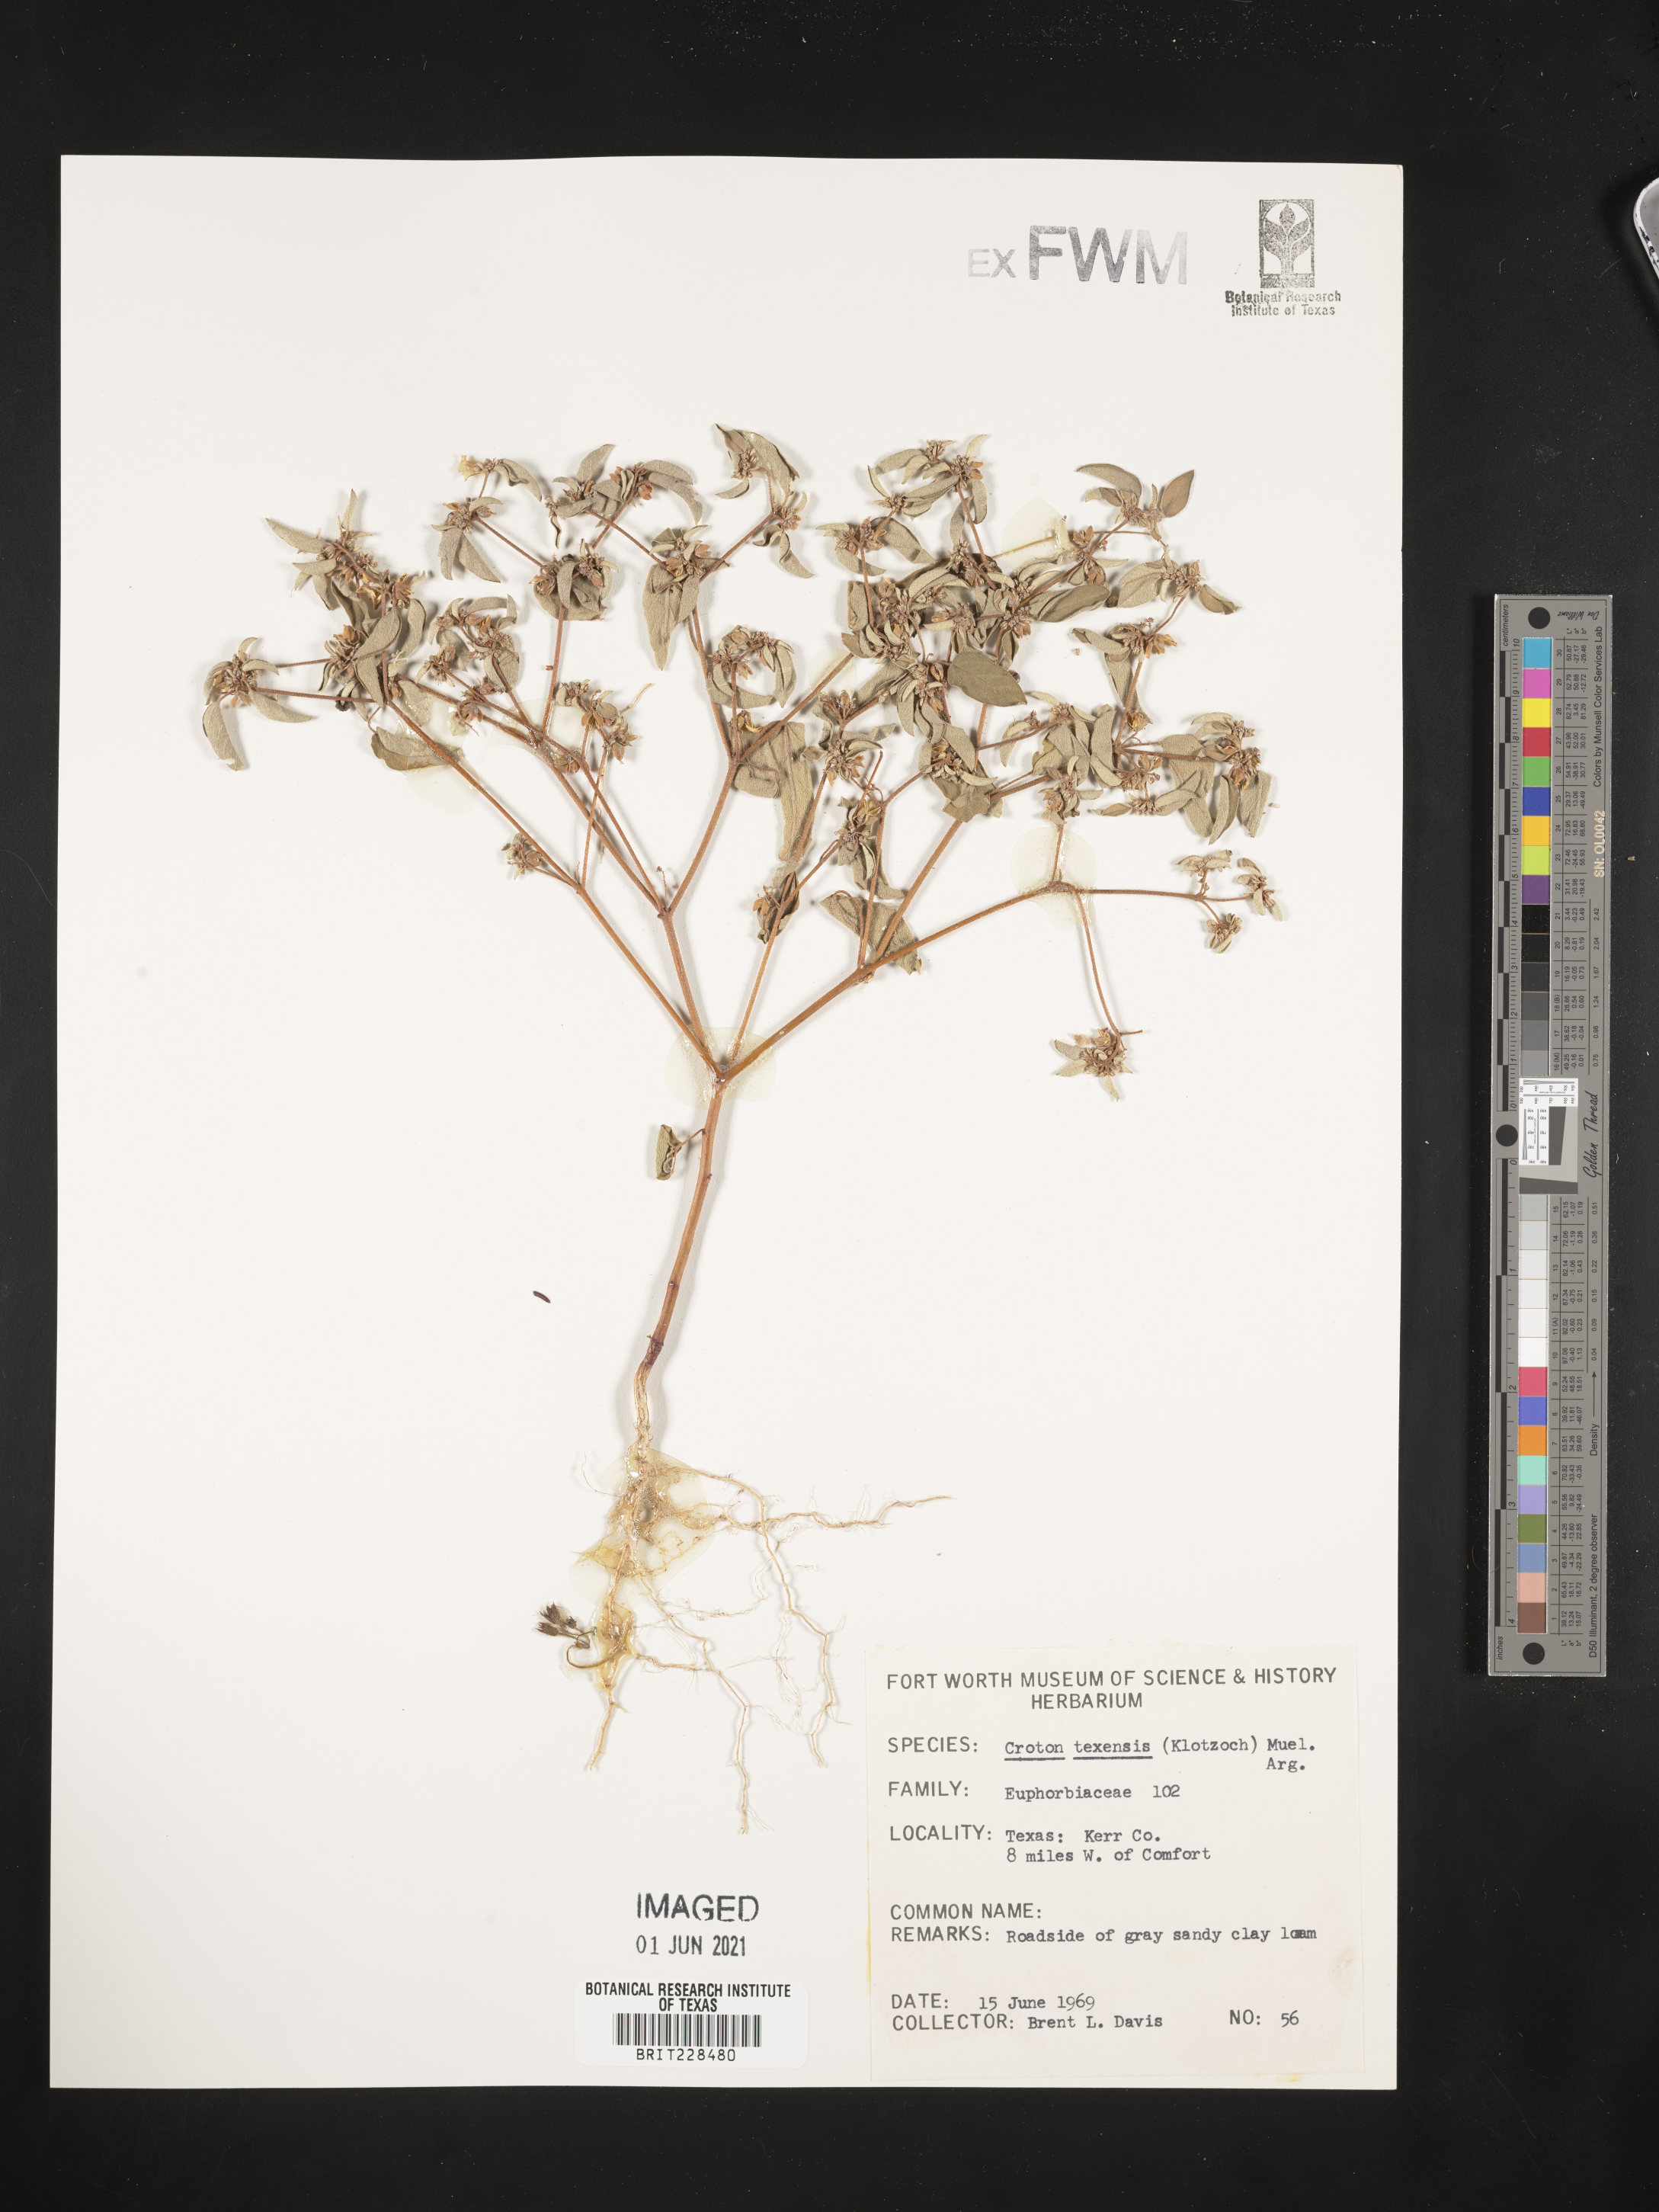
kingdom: Plantae
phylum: Tracheophyta
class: Magnoliopsida
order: Malpighiales
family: Euphorbiaceae
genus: Croton
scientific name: Croton texensis
